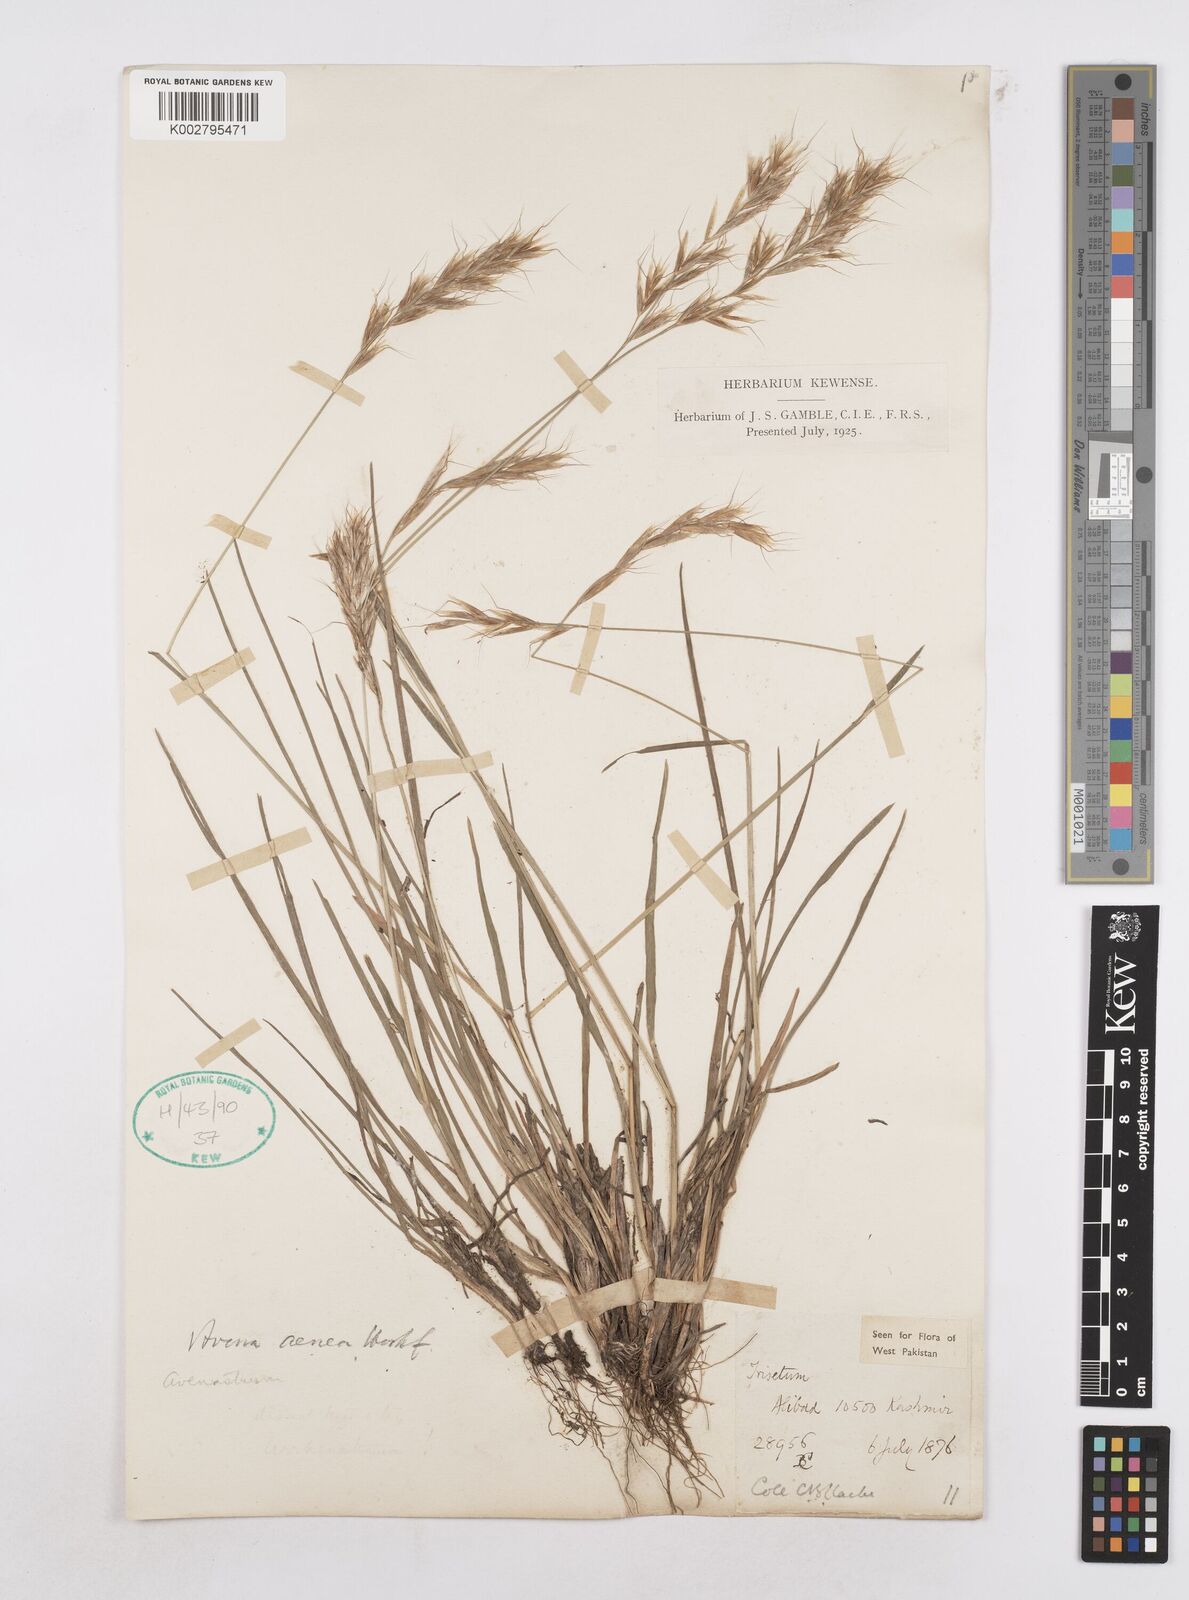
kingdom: Plantae
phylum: Tracheophyta
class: Liliopsida
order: Poales
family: Poaceae
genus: Helictochloa
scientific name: Helictochloa pratensis
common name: Meadow oat grass
